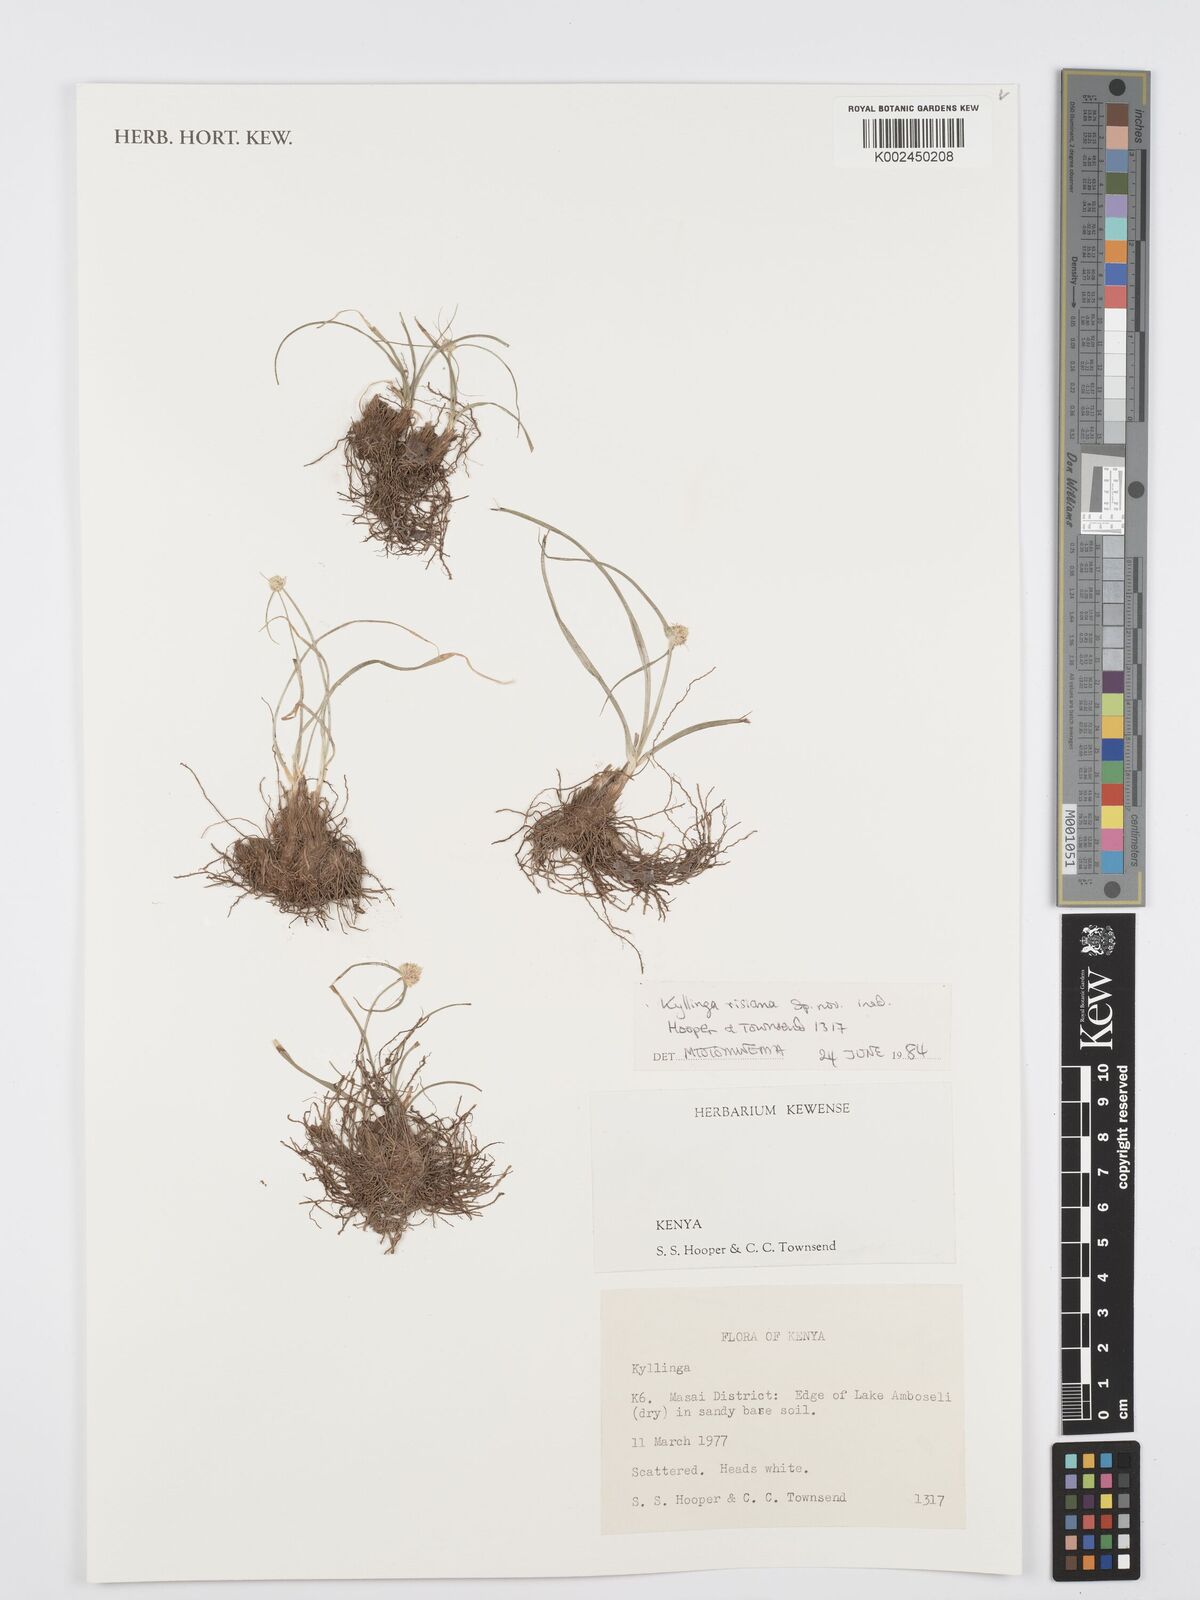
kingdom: Plantae
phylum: Tracheophyta
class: Liliopsida
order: Poales
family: Cyperaceae
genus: Cyperus
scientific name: Cyperus
